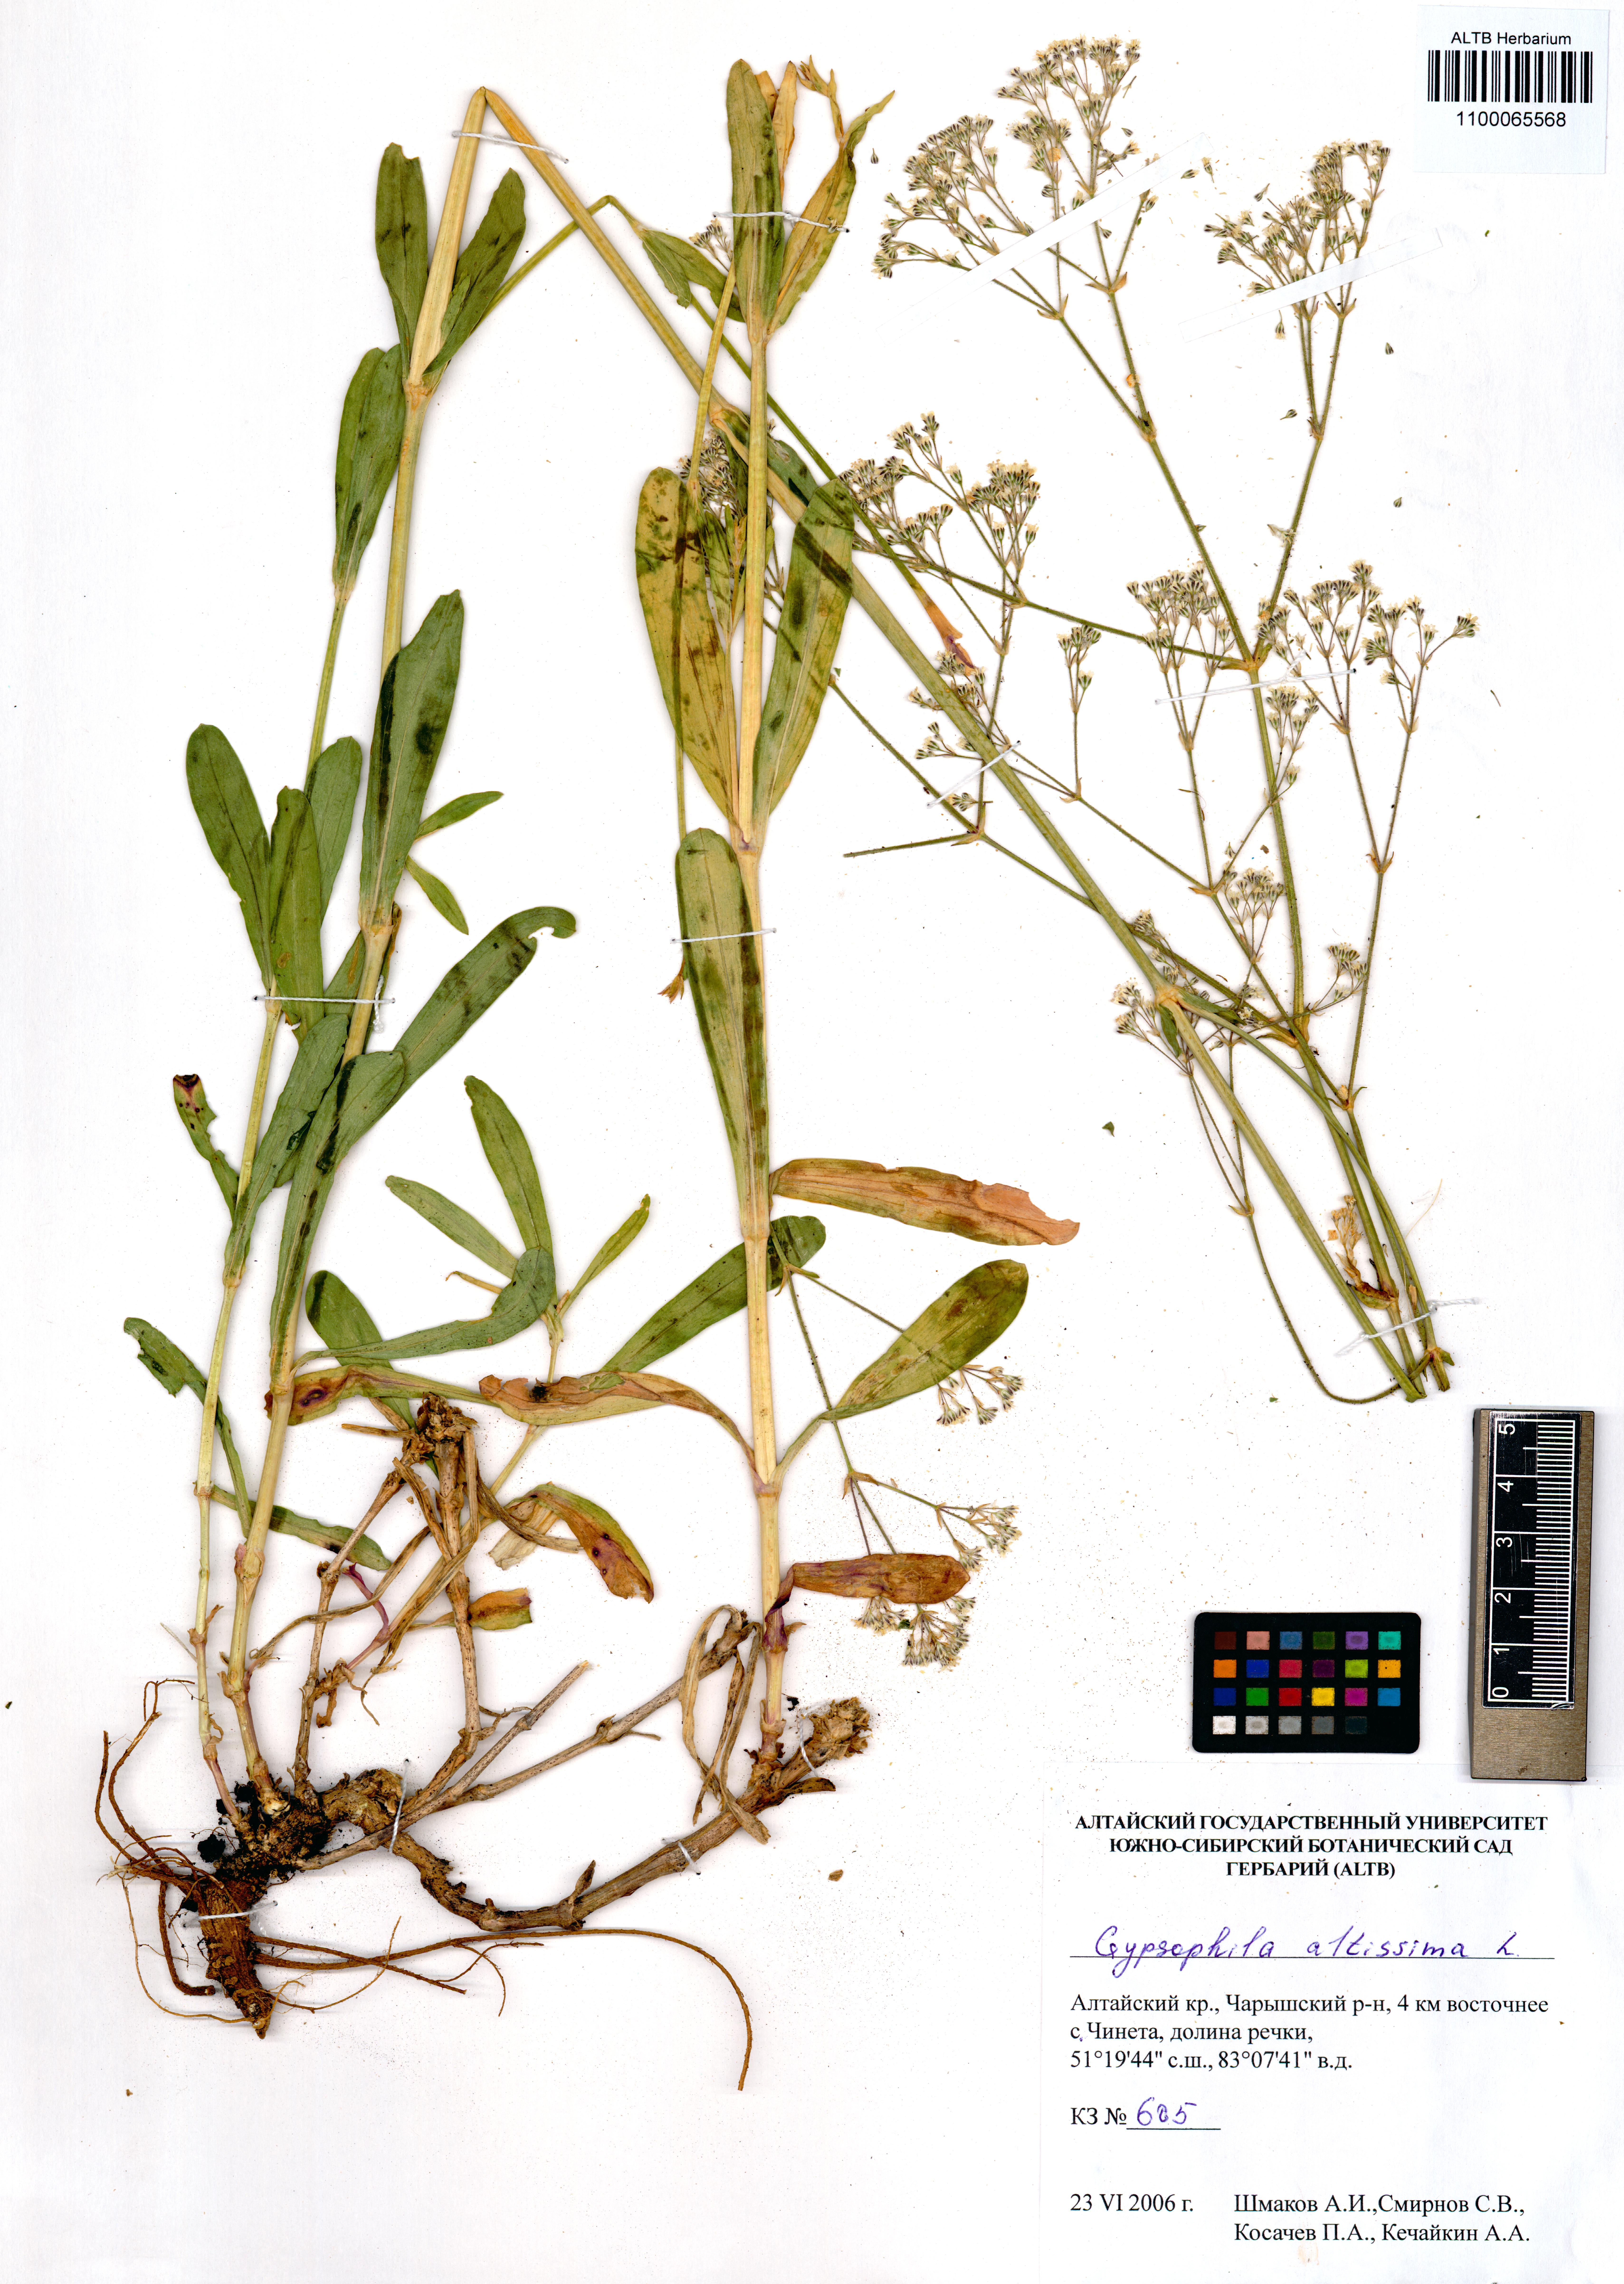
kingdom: Plantae
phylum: Tracheophyta
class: Magnoliopsida
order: Caryophyllales
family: Caryophyllaceae
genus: Gypsophila
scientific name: Gypsophila altissima
